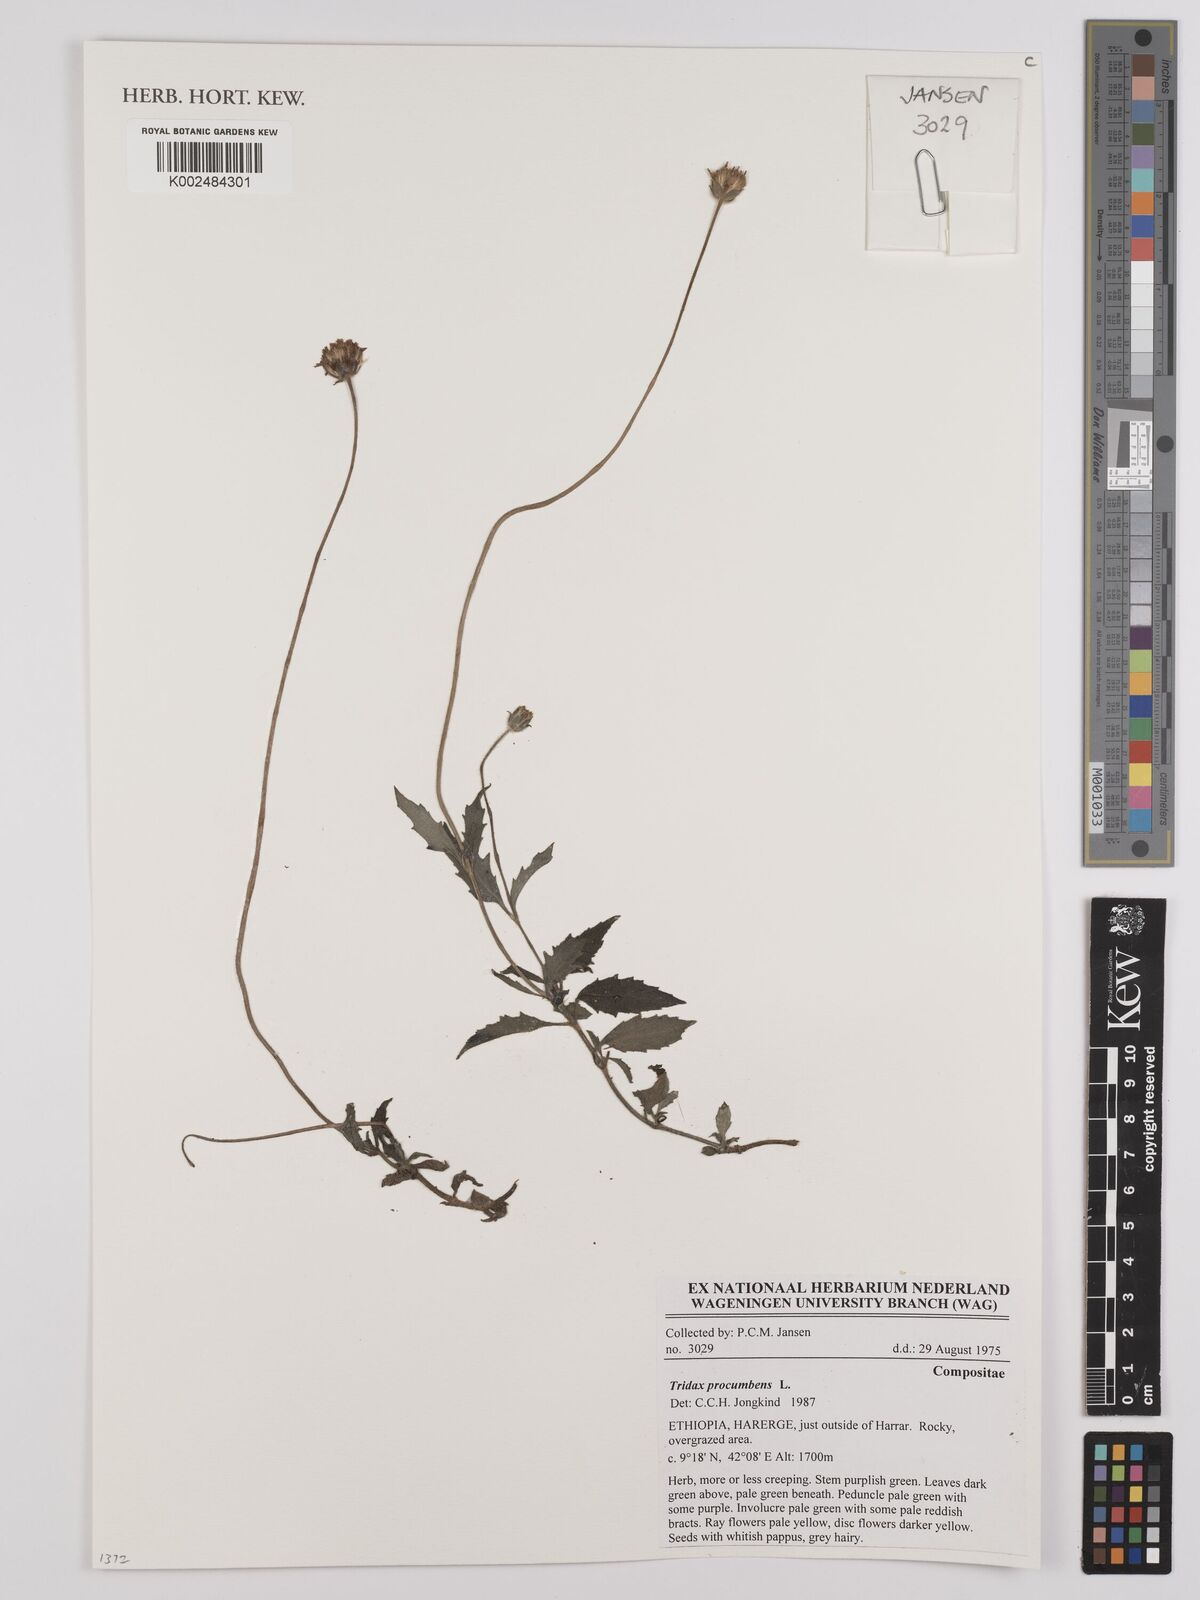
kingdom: Plantae
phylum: Tracheophyta
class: Magnoliopsida
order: Asterales
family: Asteraceae
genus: Tridax
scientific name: Tridax procumbens
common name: Coatbuttons
